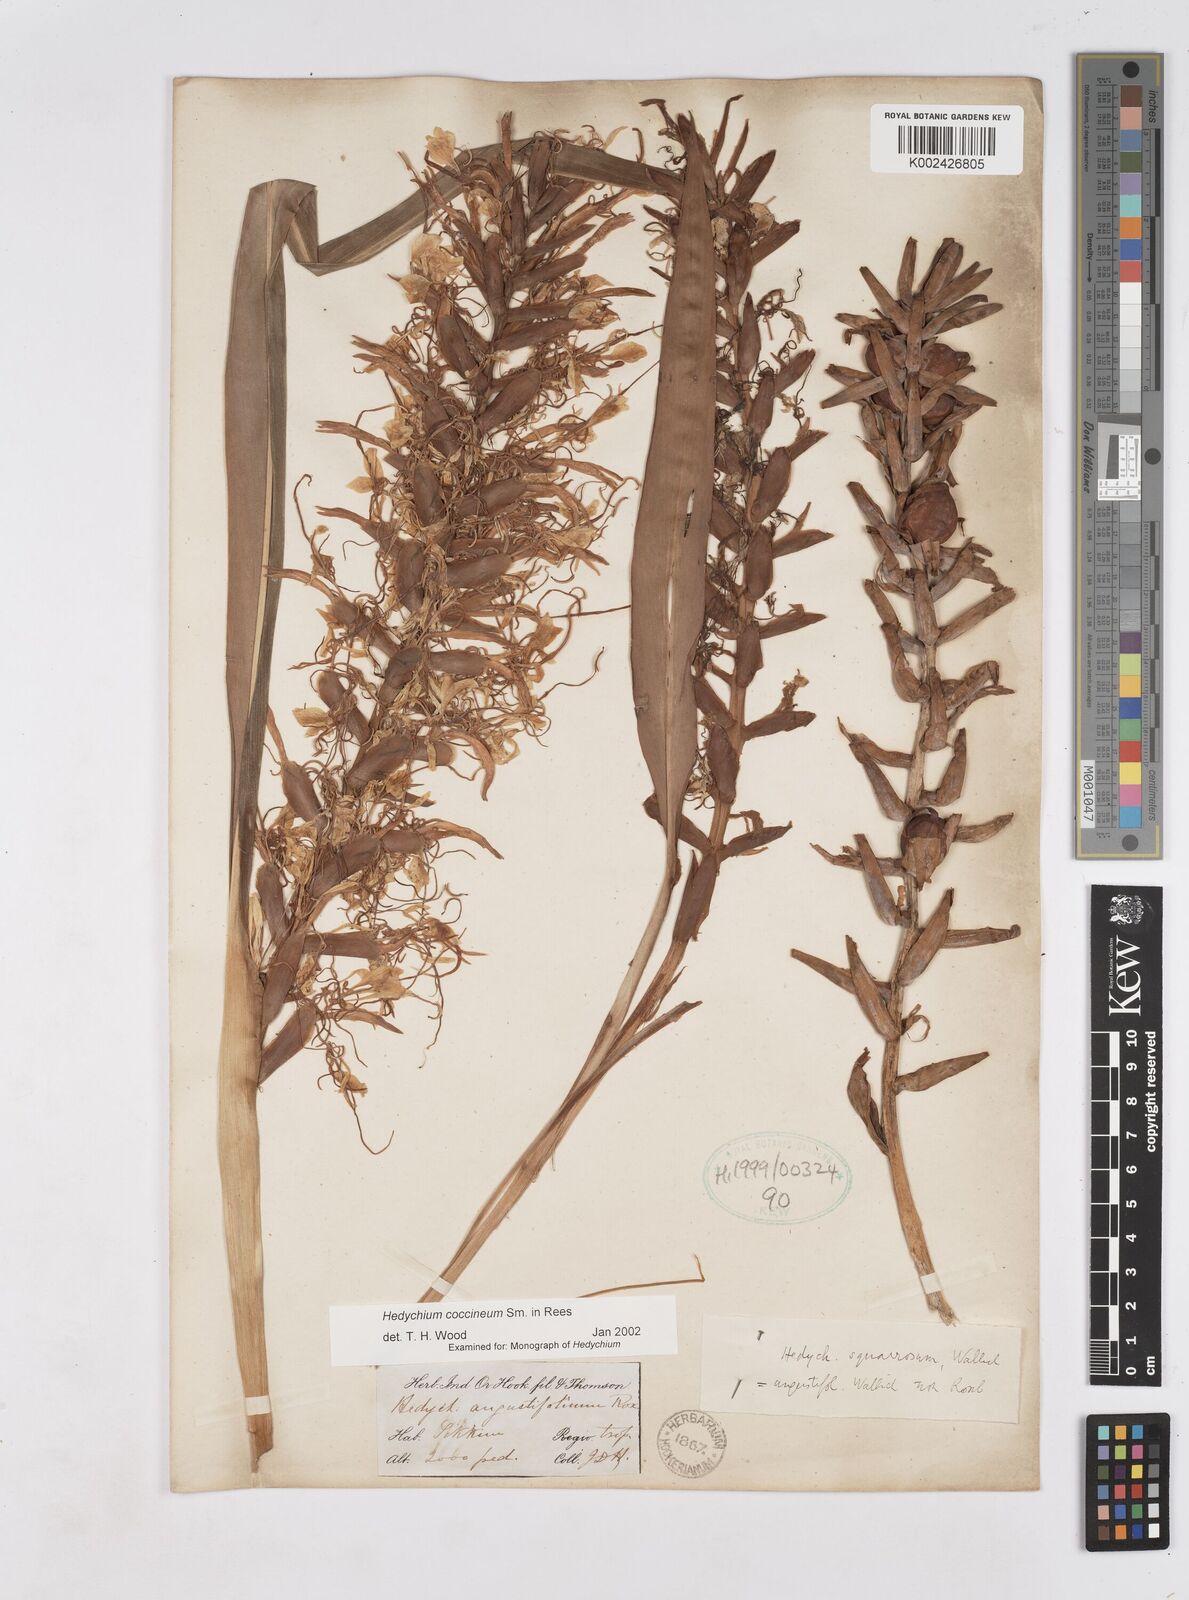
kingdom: Plantae
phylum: Tracheophyta
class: Liliopsida
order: Zingiberales
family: Zingiberaceae
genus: Hedychium
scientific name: Hedychium coccineum
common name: Red ginger-lily
